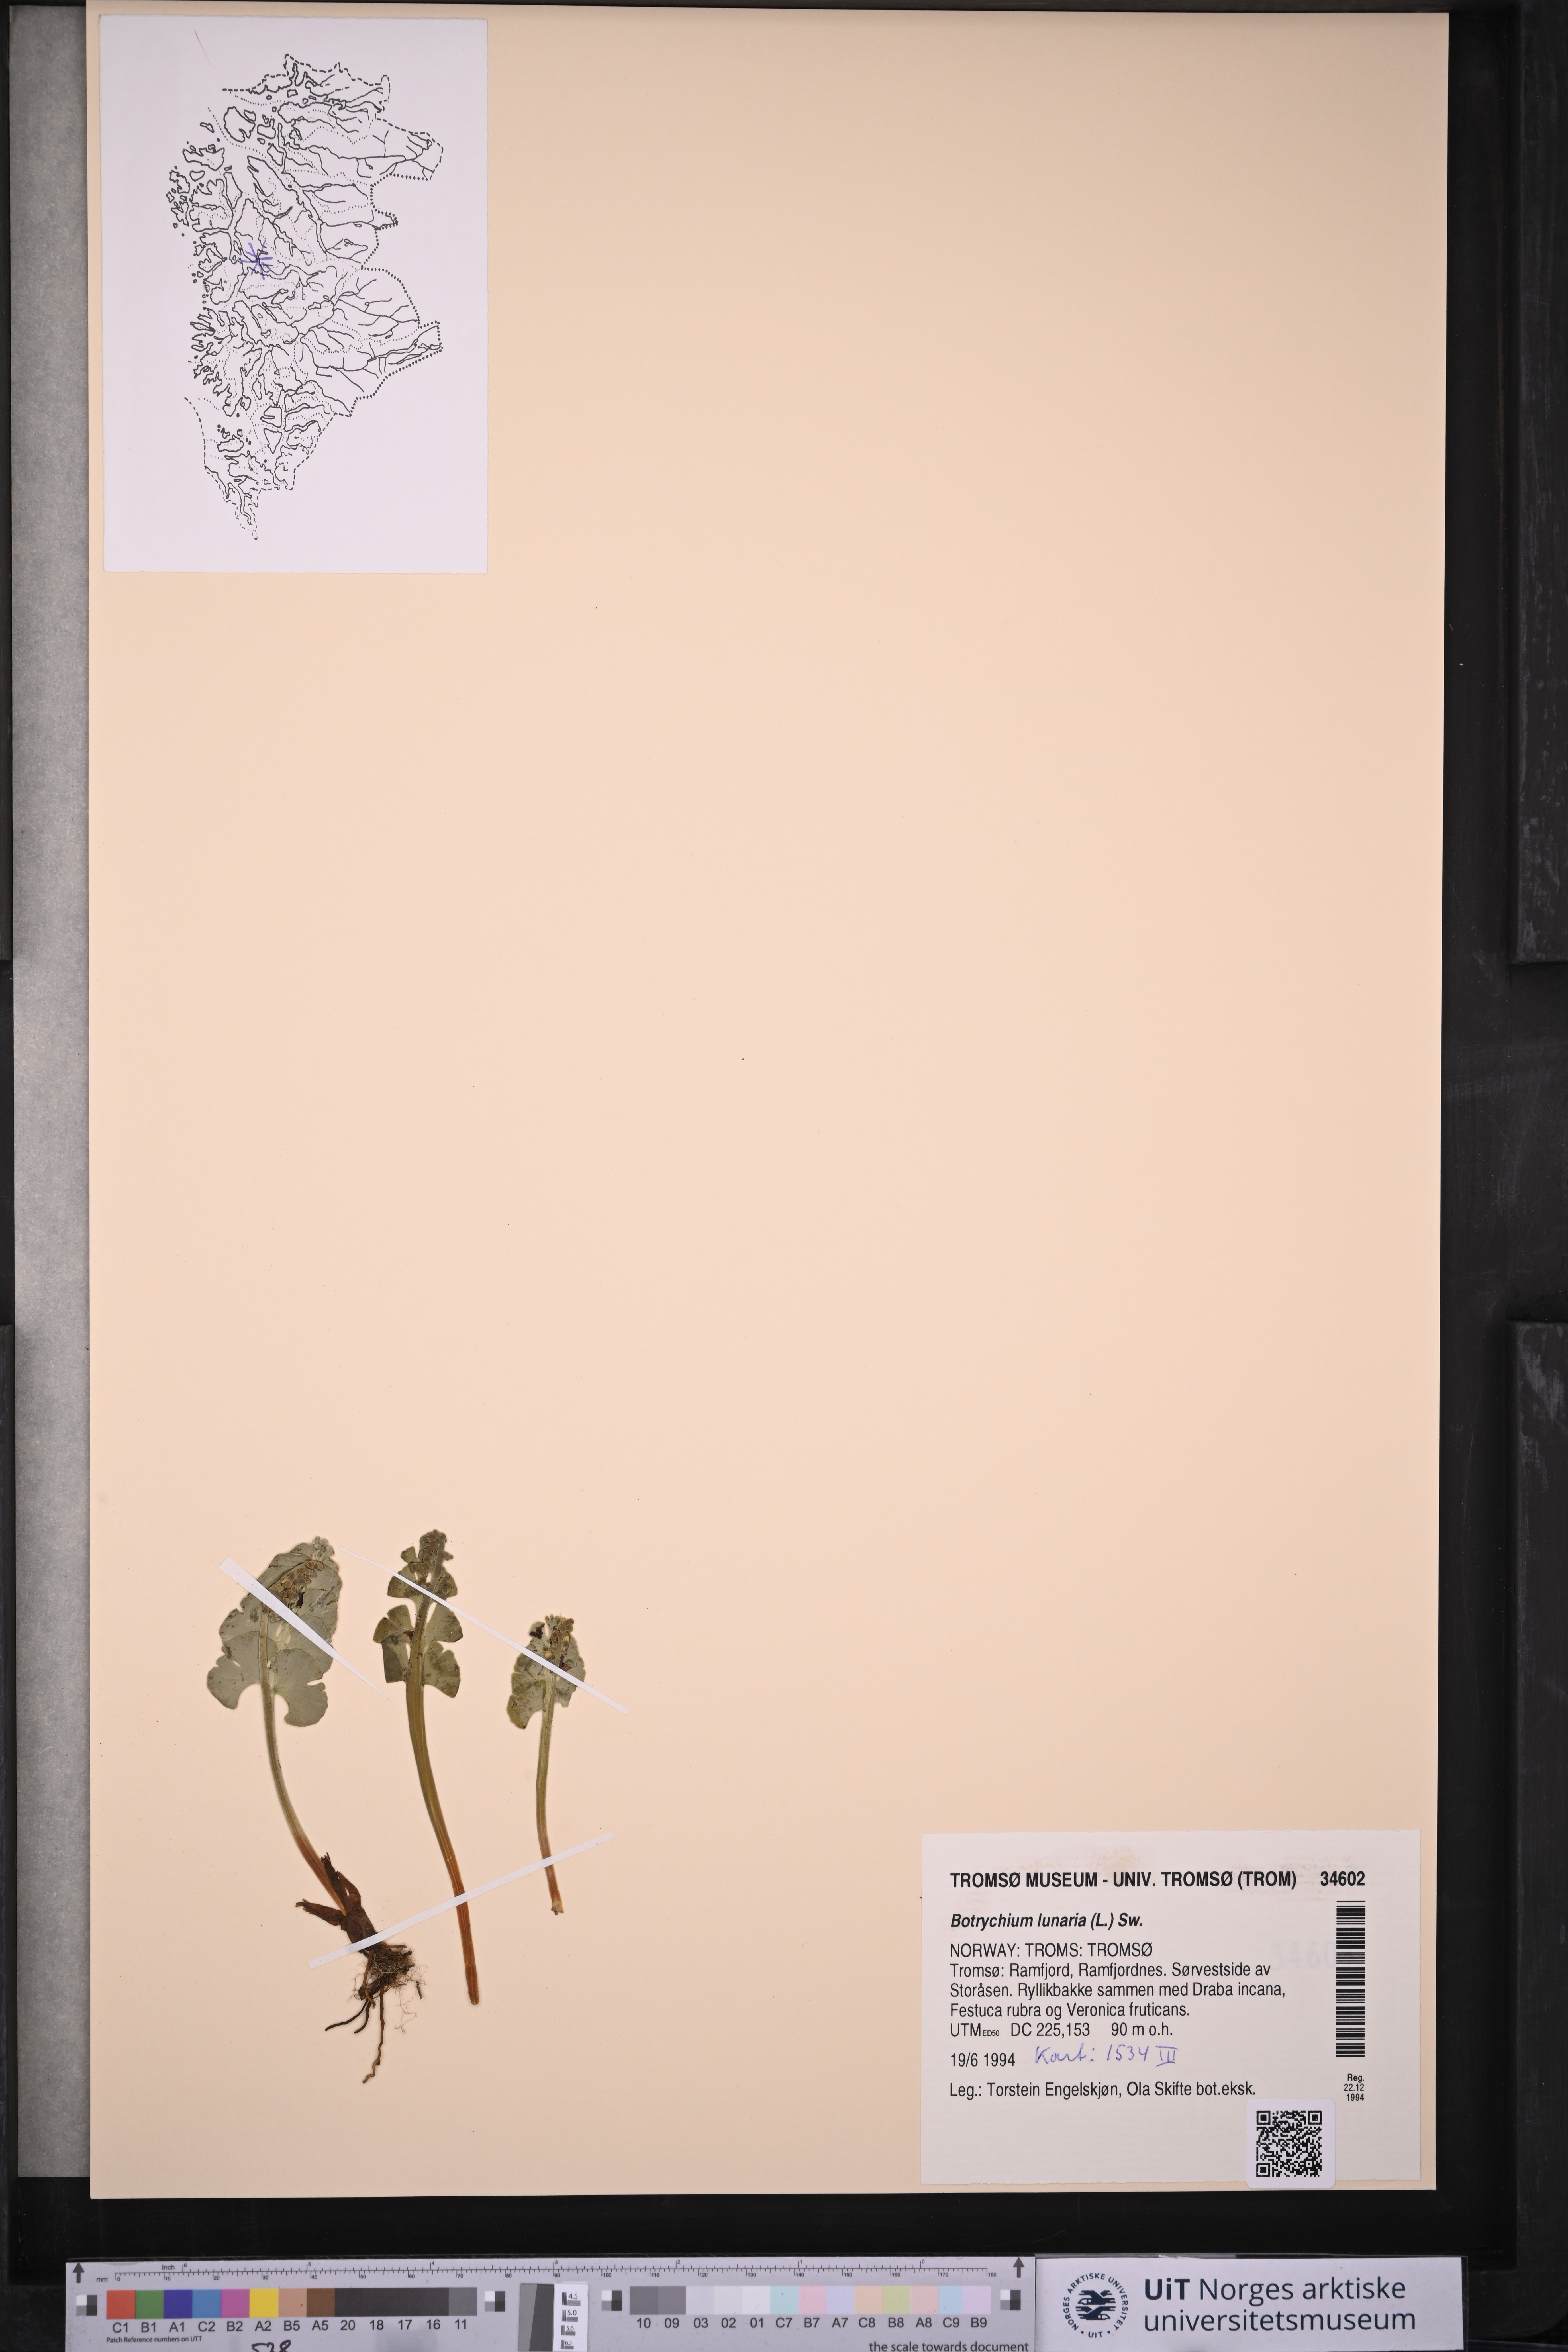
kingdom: Plantae
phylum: Tracheophyta
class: Polypodiopsida
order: Ophioglossales
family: Ophioglossaceae
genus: Botrychium
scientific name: Botrychium lunaria
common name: Moonwort
